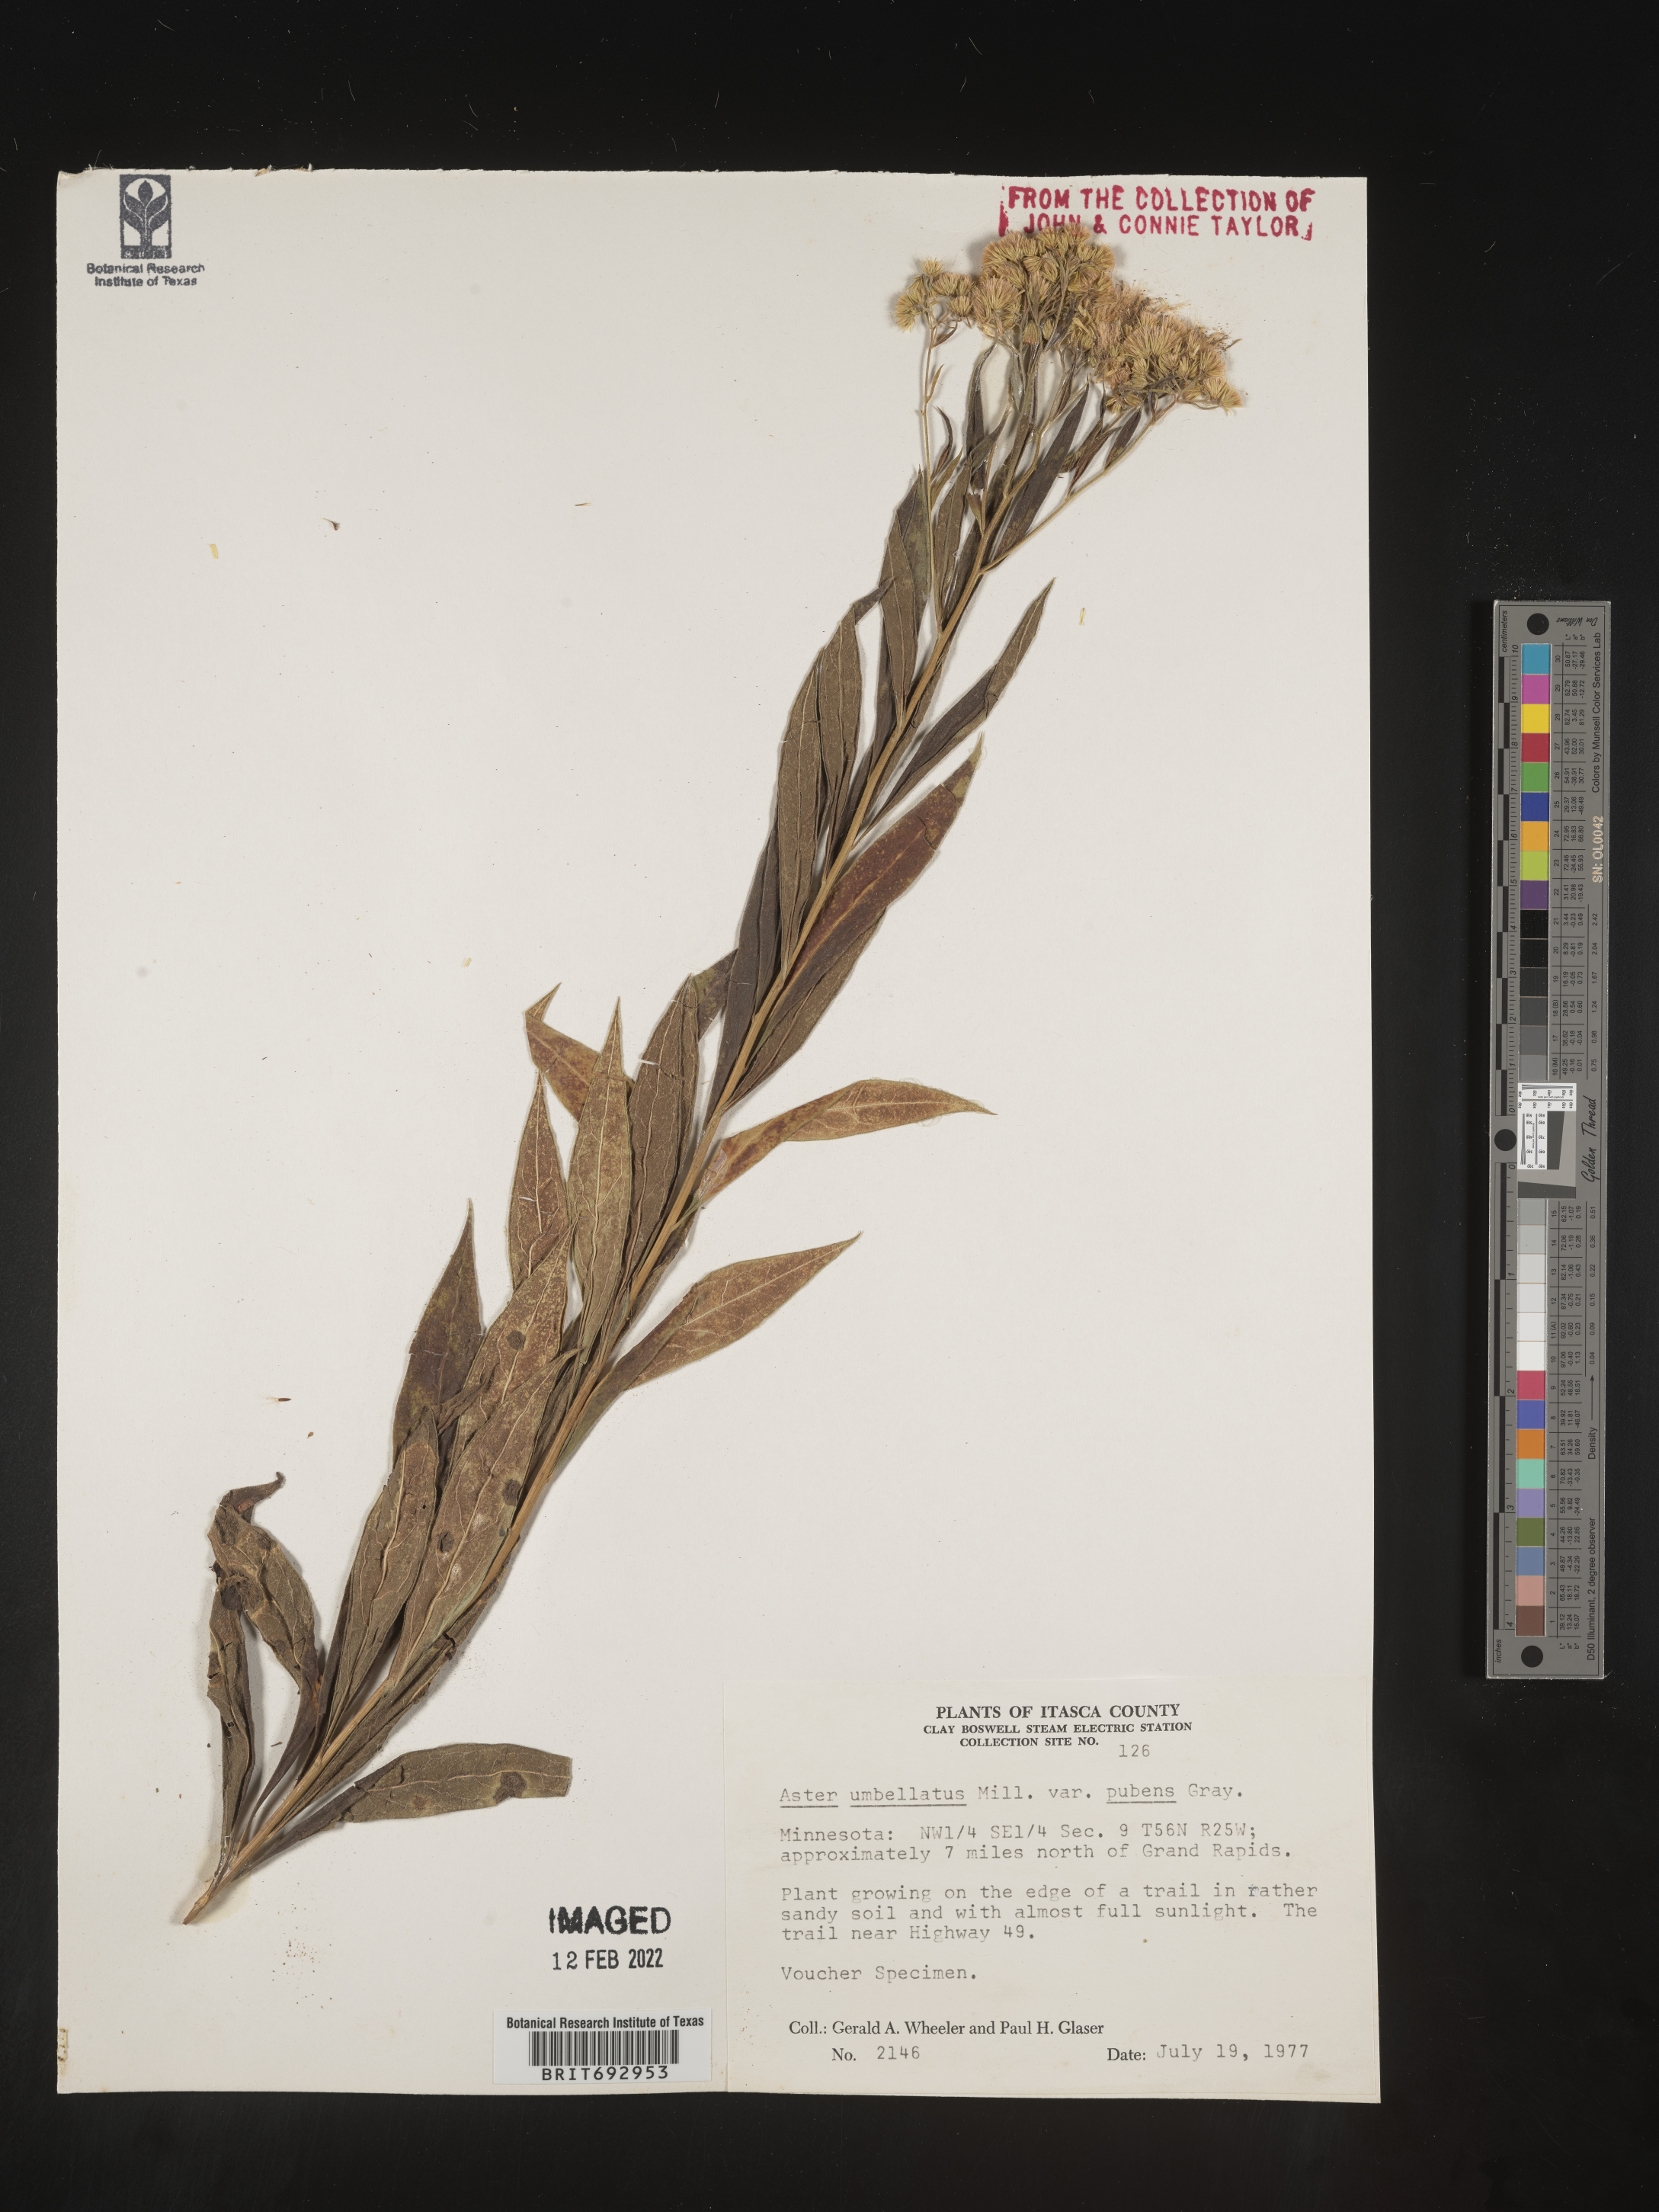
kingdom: Plantae
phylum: Tracheophyta
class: Magnoliopsida
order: Asterales
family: Asteraceae
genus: Doellingeria
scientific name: Doellingeria umbellata
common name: Flat-top white aster
